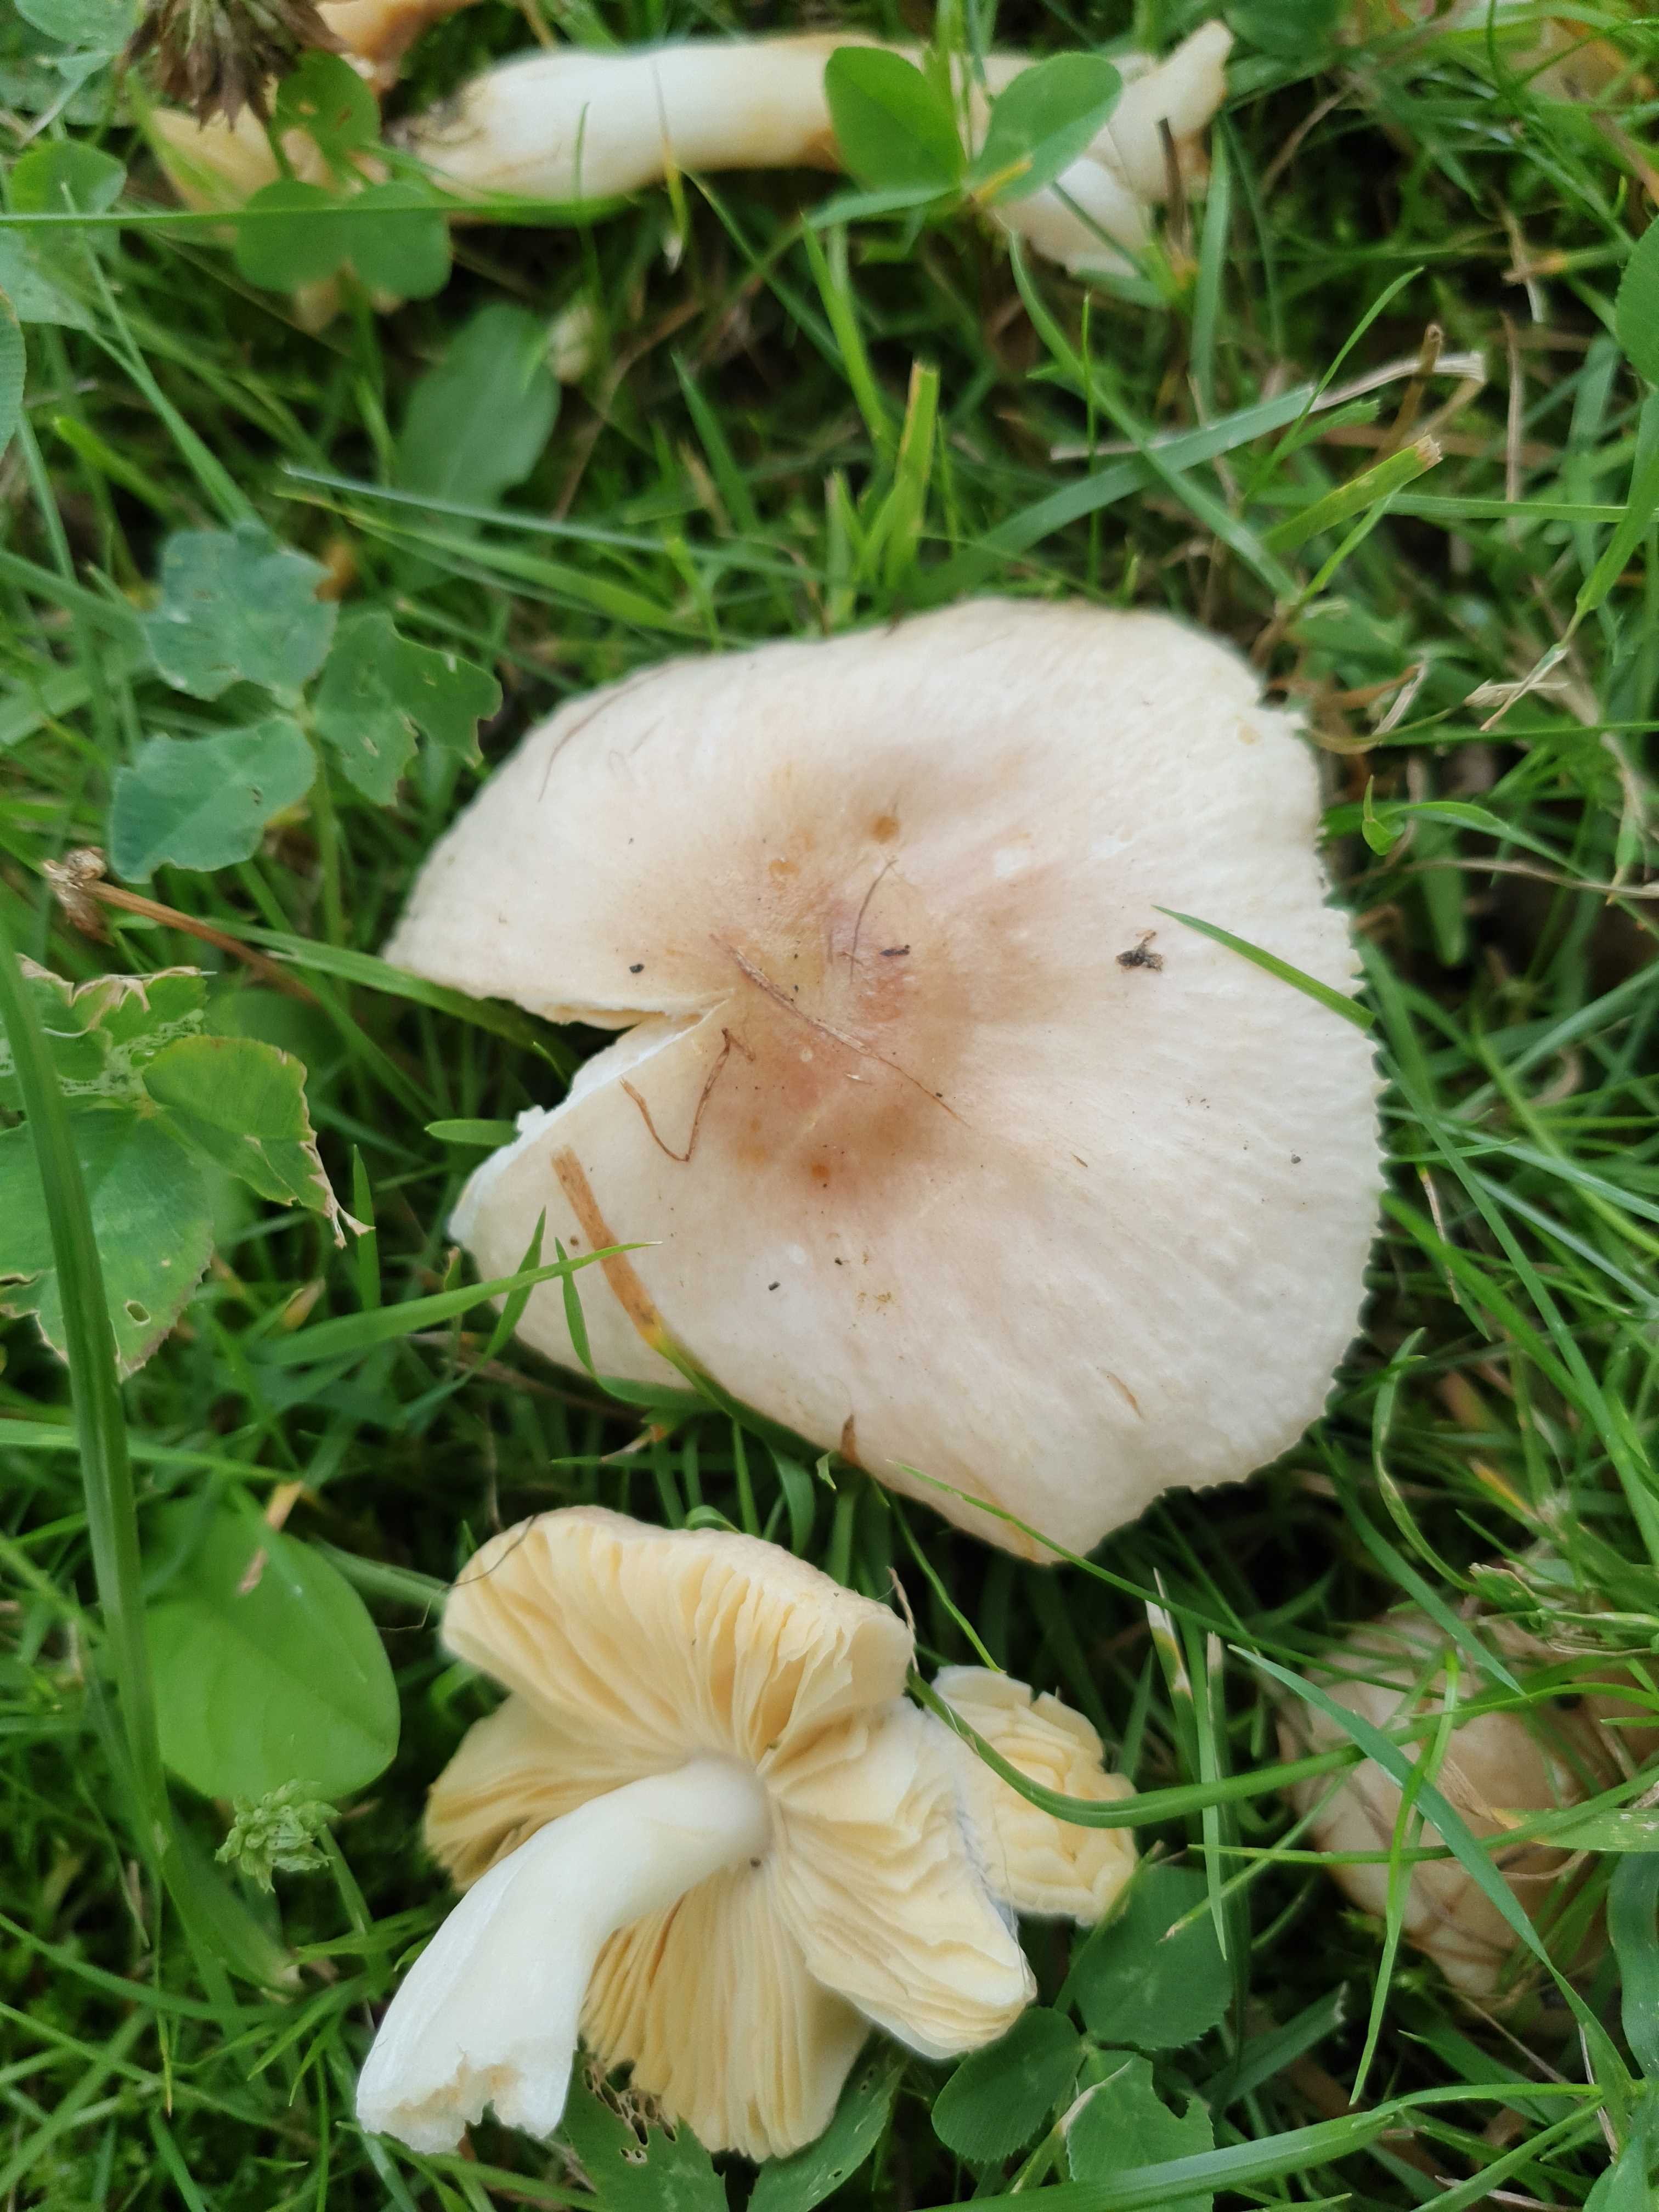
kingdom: Fungi
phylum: Basidiomycota
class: Agaricomycetes
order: Russulales
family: Russulaceae
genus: Russula
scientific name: Russula odorata
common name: duft-skørhat
